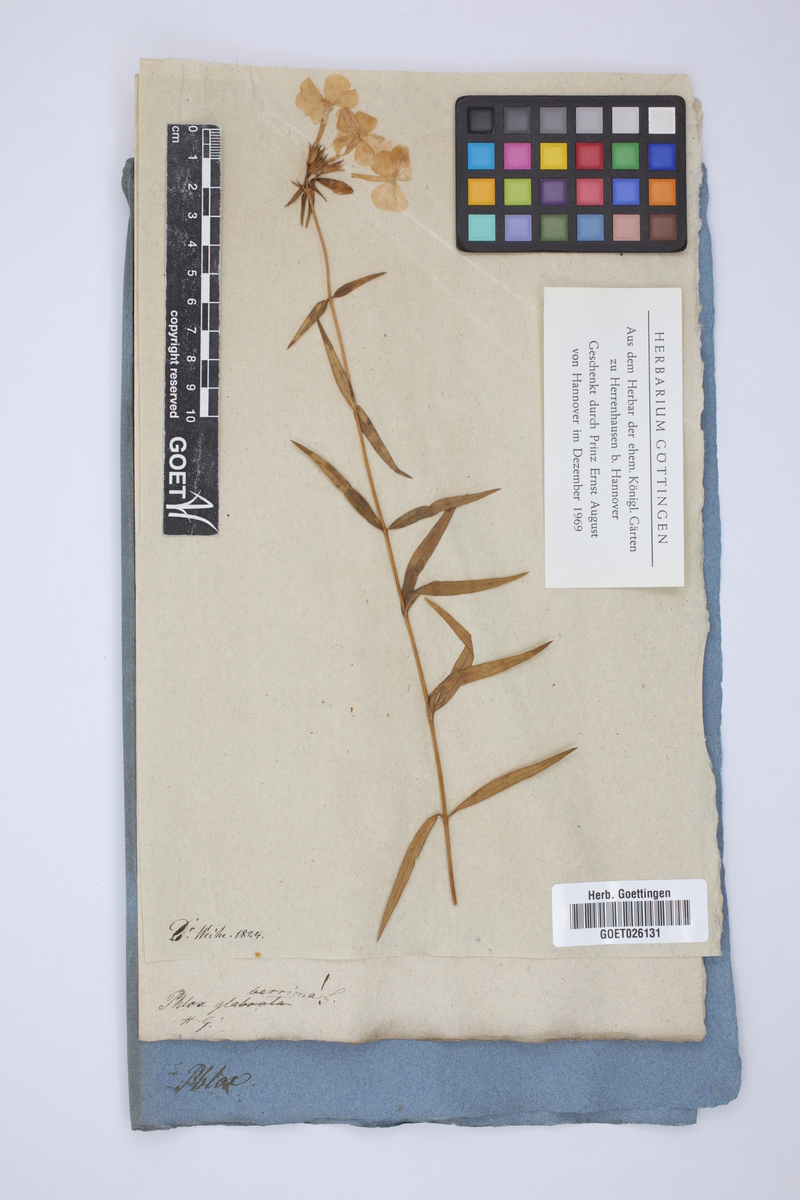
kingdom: Plantae
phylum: Tracheophyta
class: Magnoliopsida
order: Ericales
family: Polemoniaceae
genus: Phlox
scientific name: Phlox glaberrima
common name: Smooth phlox
